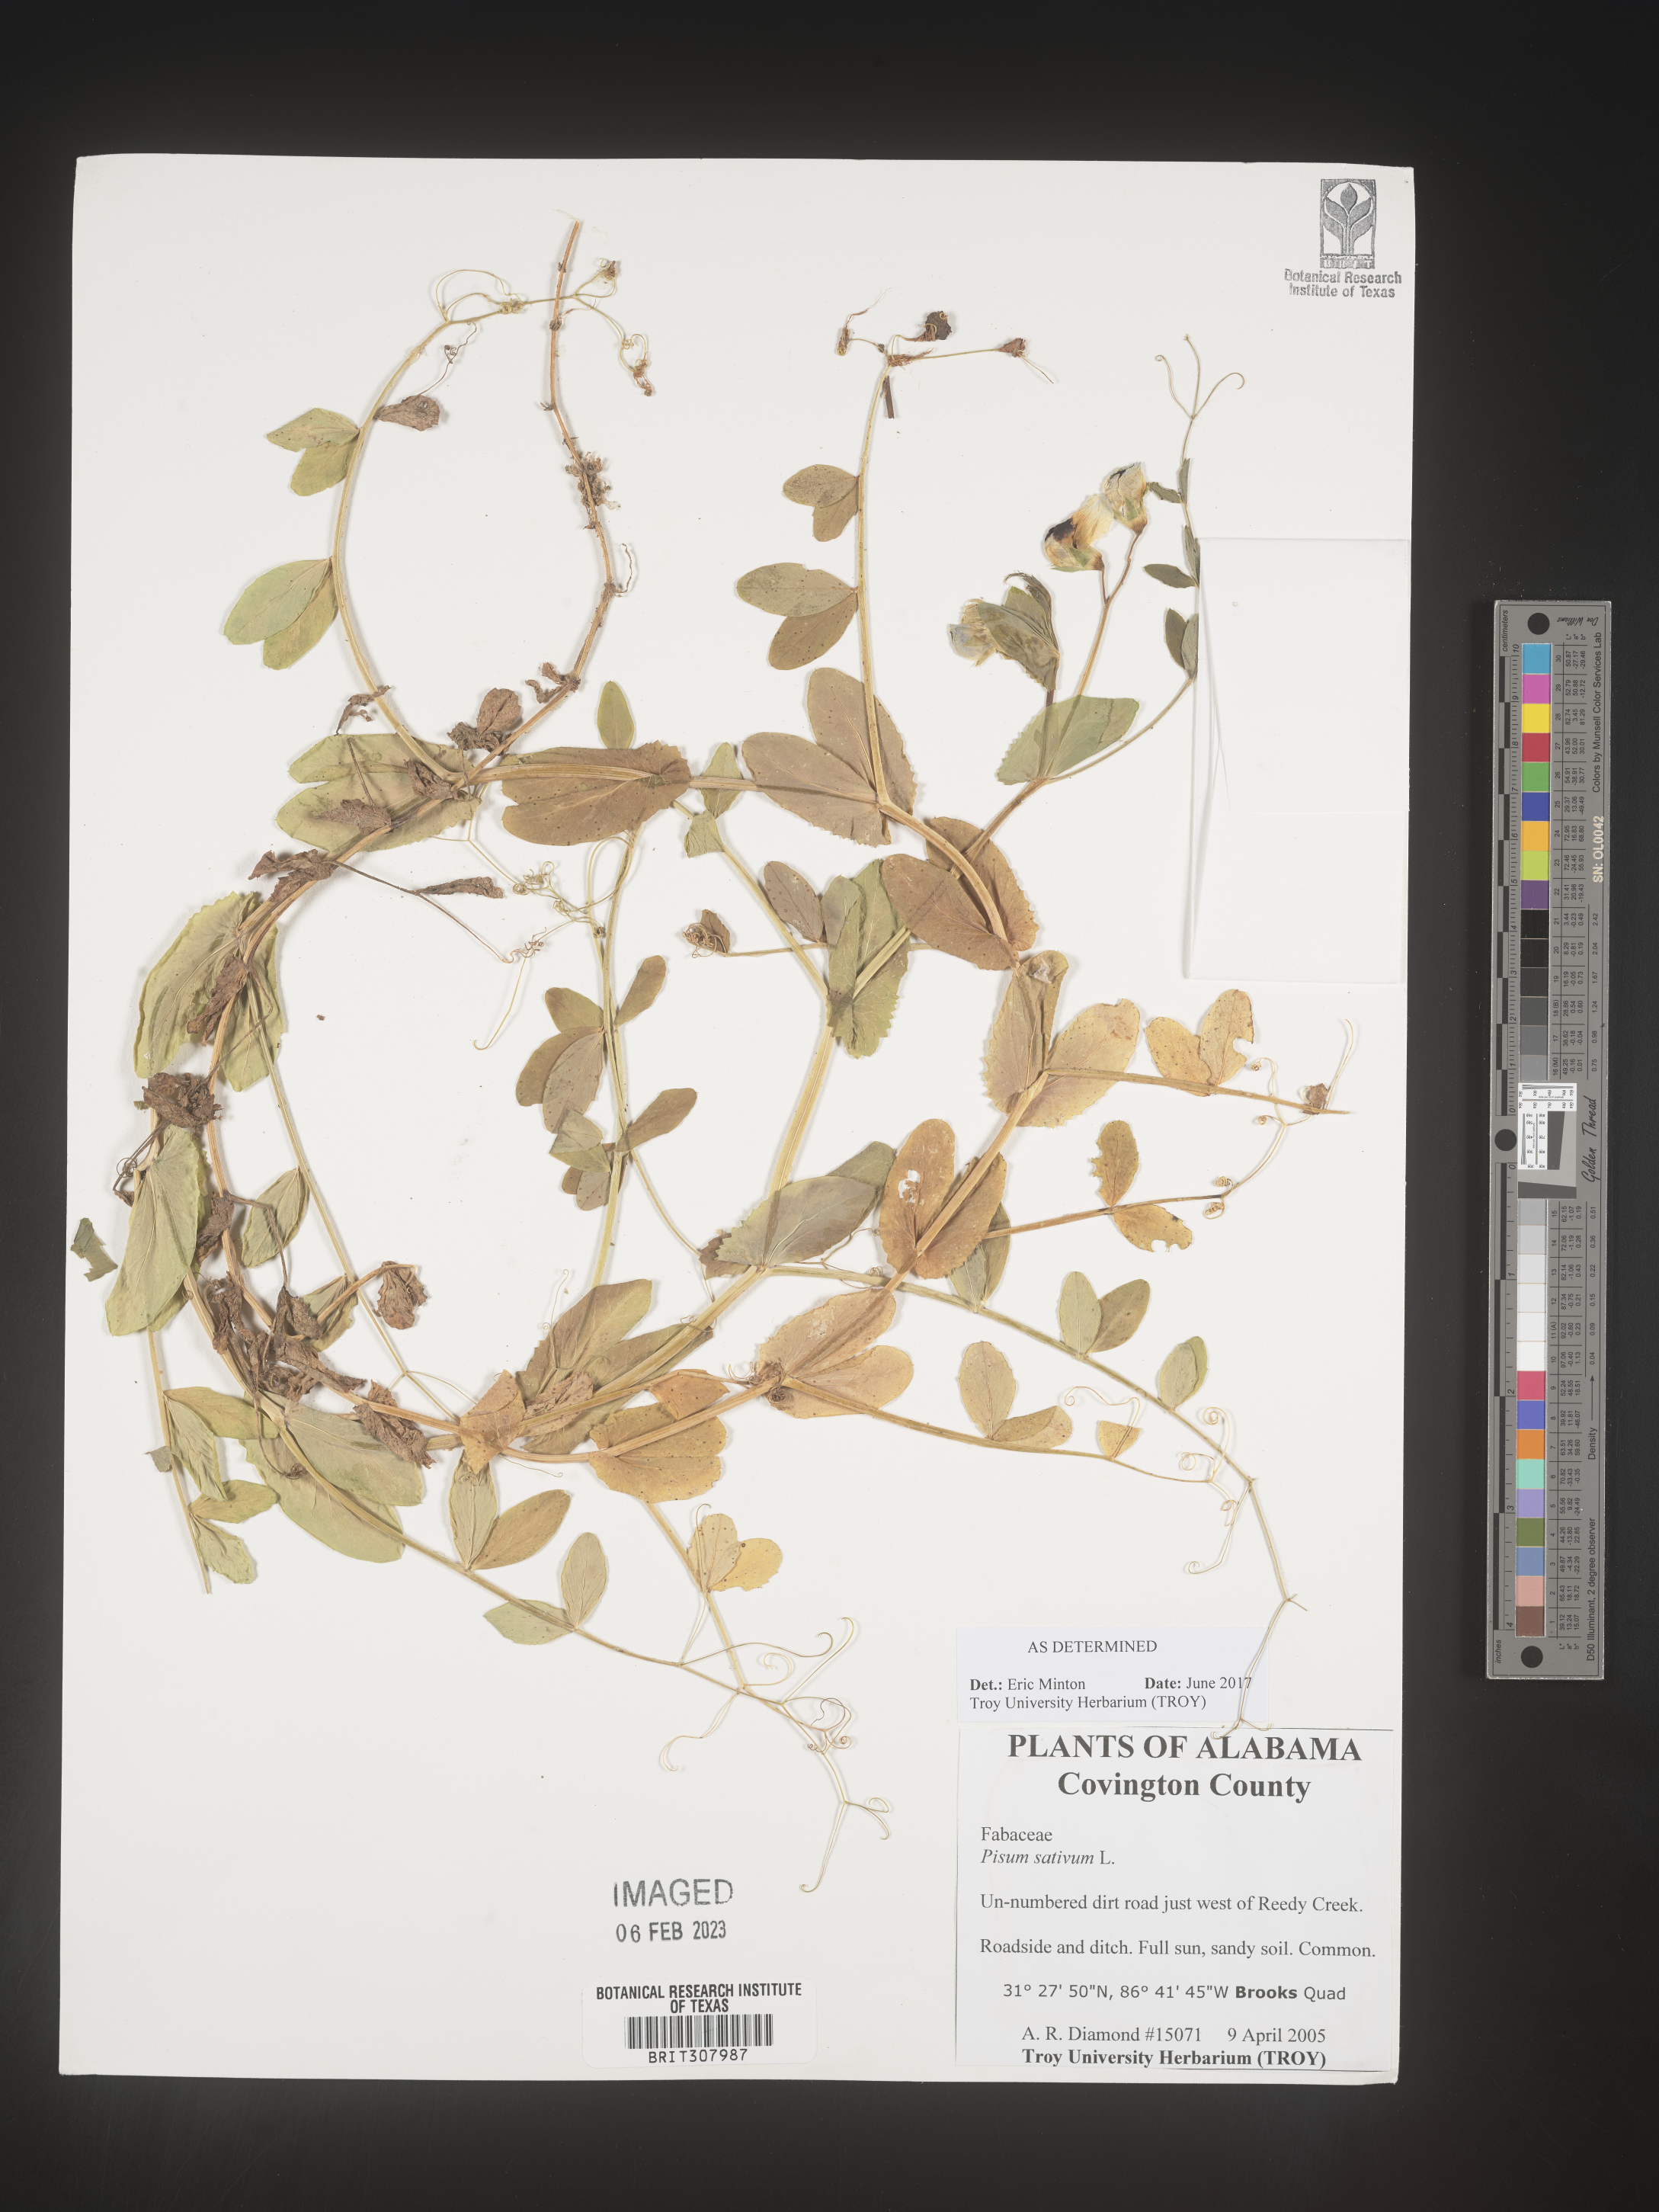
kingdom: Animalia
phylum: Mollusca
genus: Pisum
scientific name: Pisum
